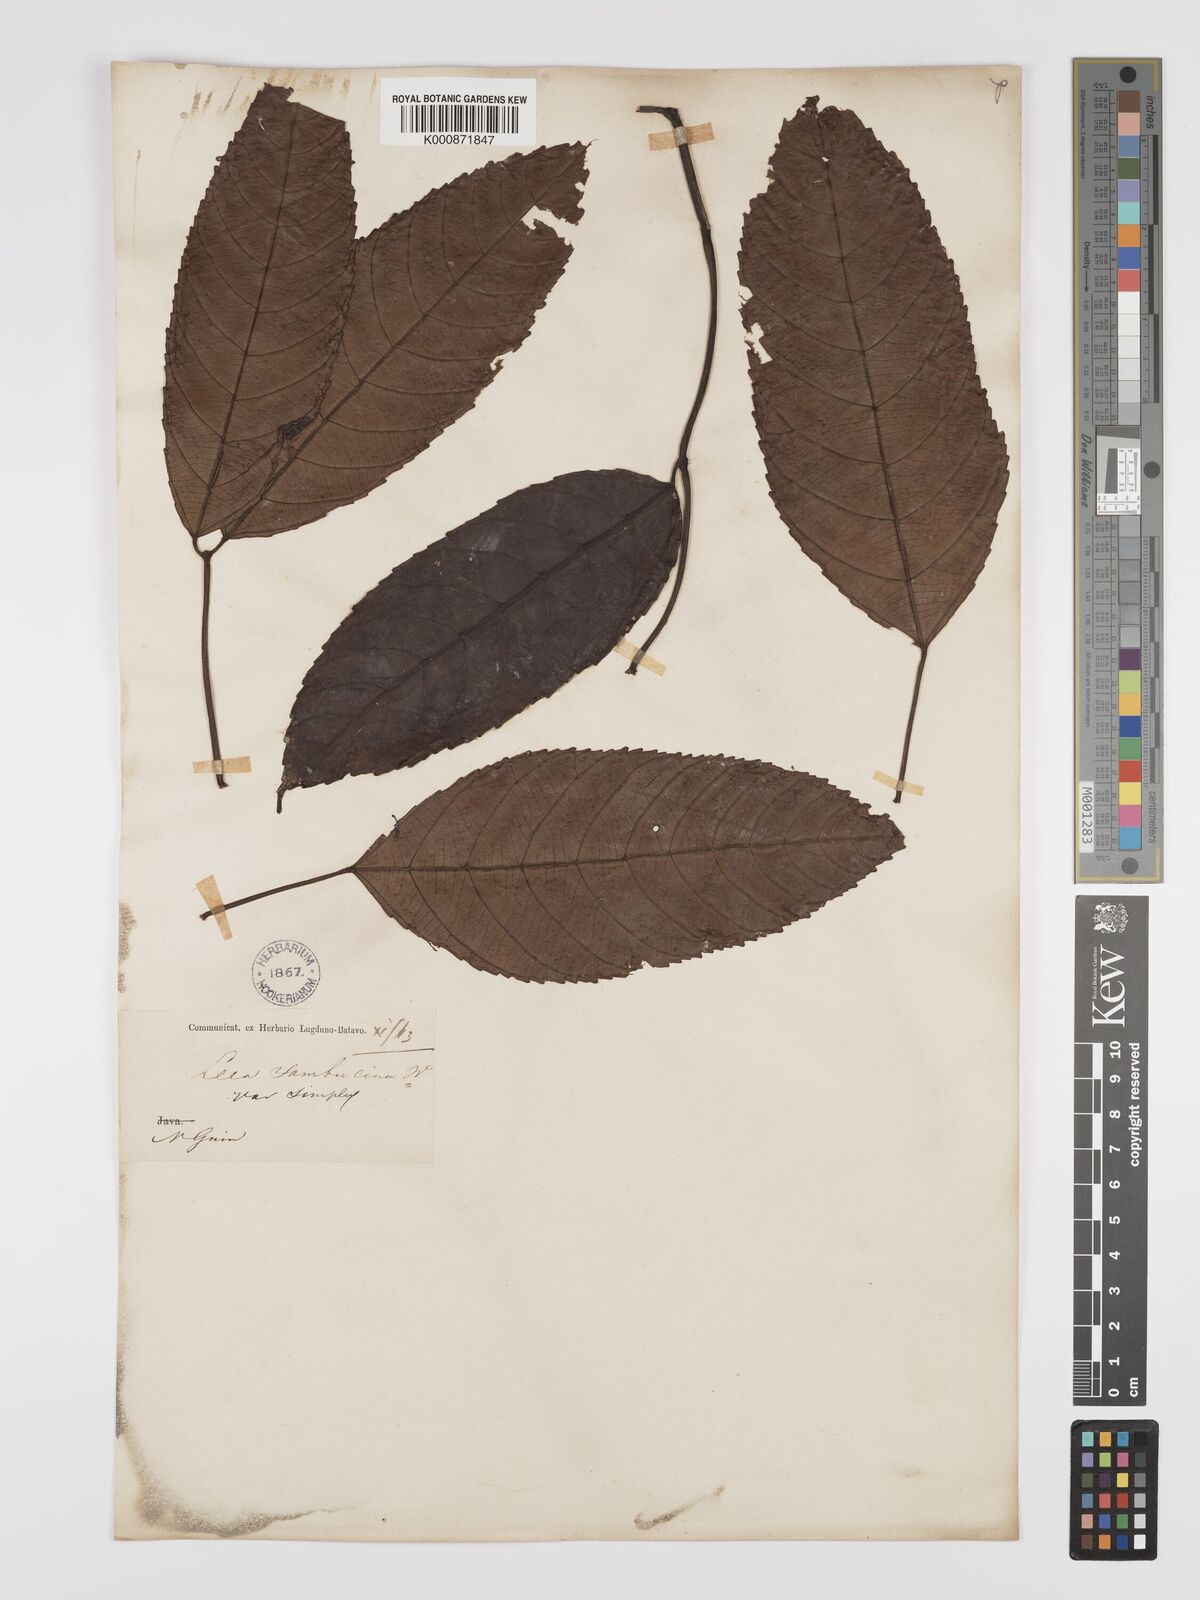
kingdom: Plantae
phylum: Tracheophyta
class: Magnoliopsida
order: Vitales
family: Vitaceae
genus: Leea
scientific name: Leea indica
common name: Bandicoot-berry
